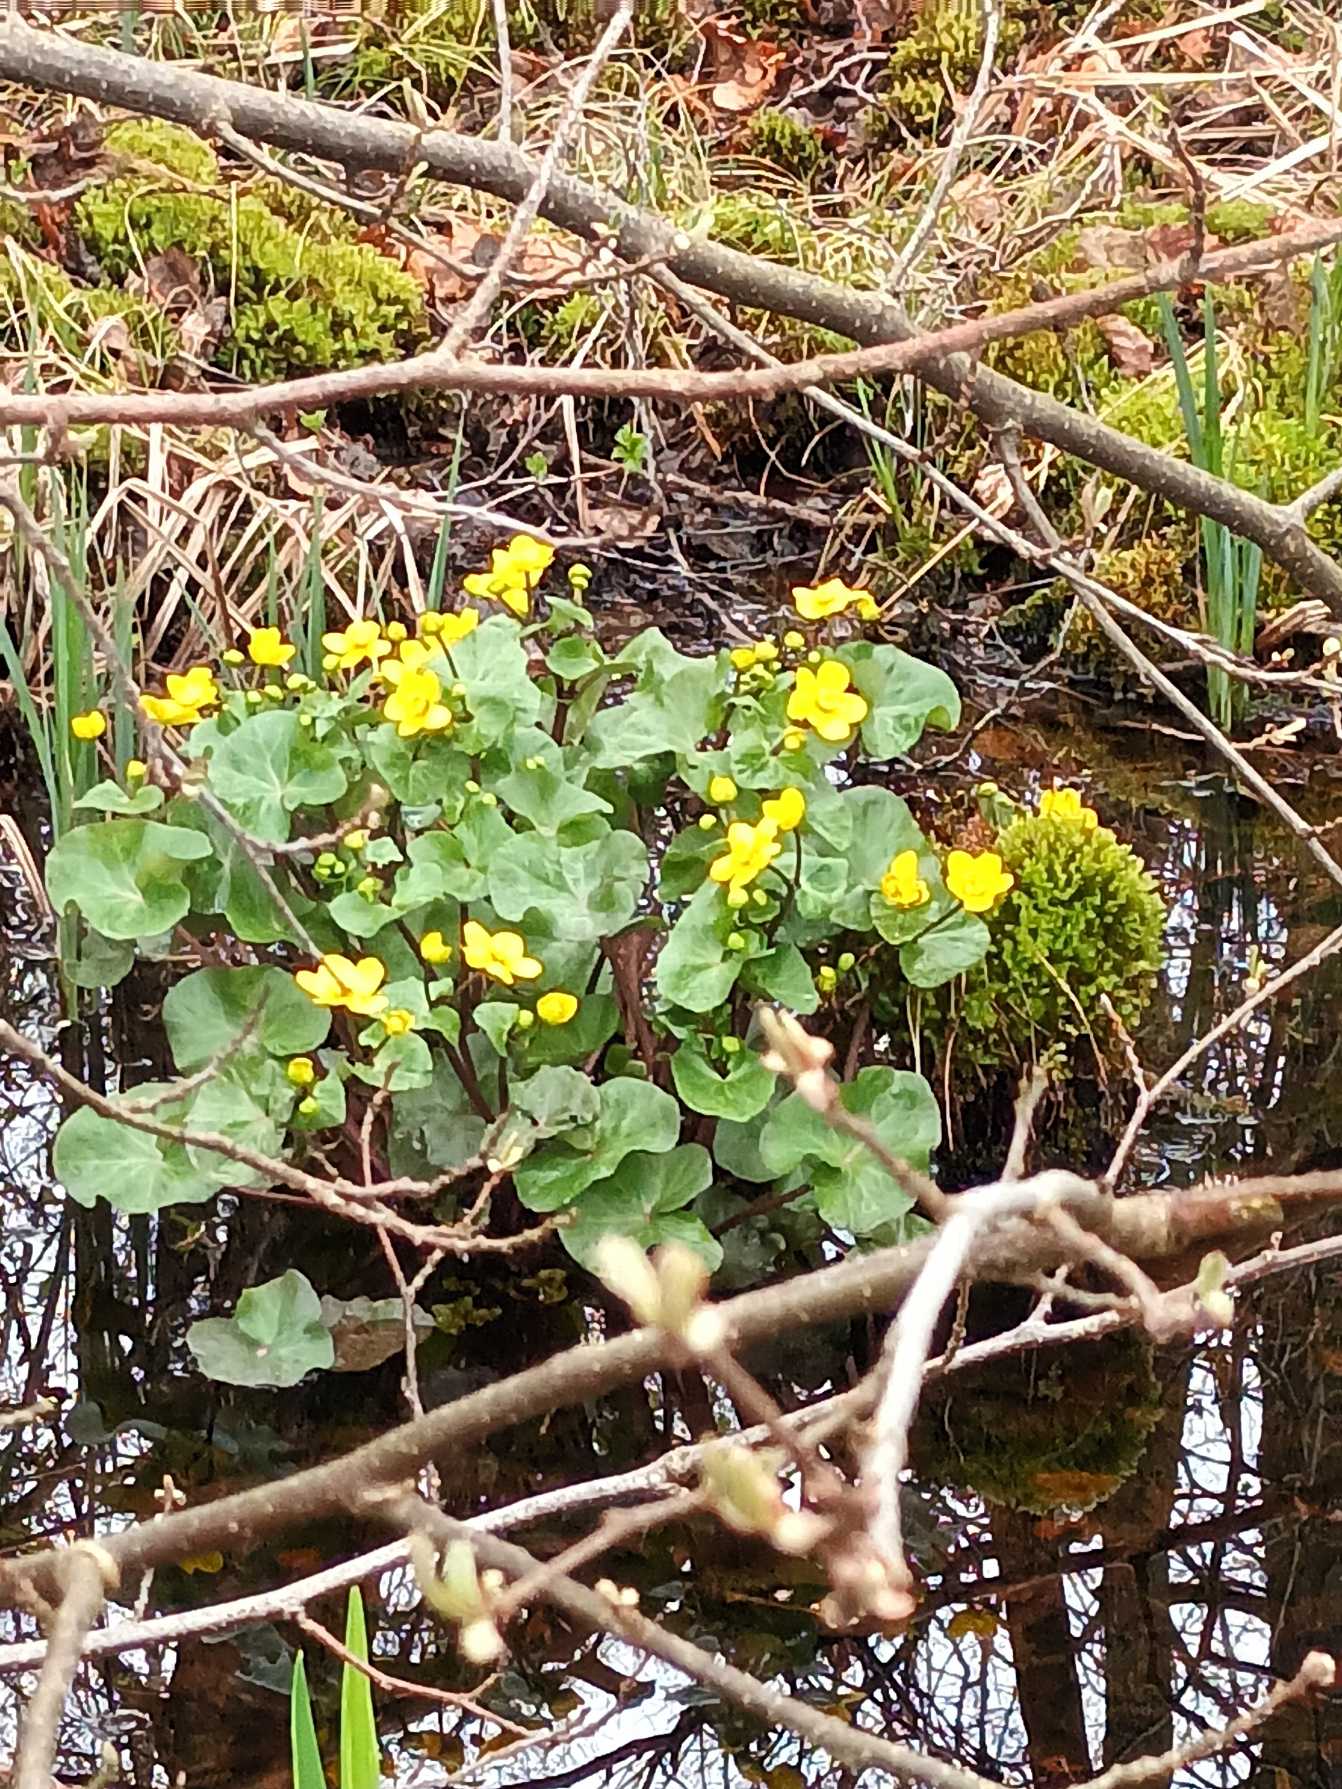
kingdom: Plantae
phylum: Tracheophyta
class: Magnoliopsida
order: Ranunculales
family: Ranunculaceae
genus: Caltha
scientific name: Caltha palustris
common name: Eng-kabbeleje
